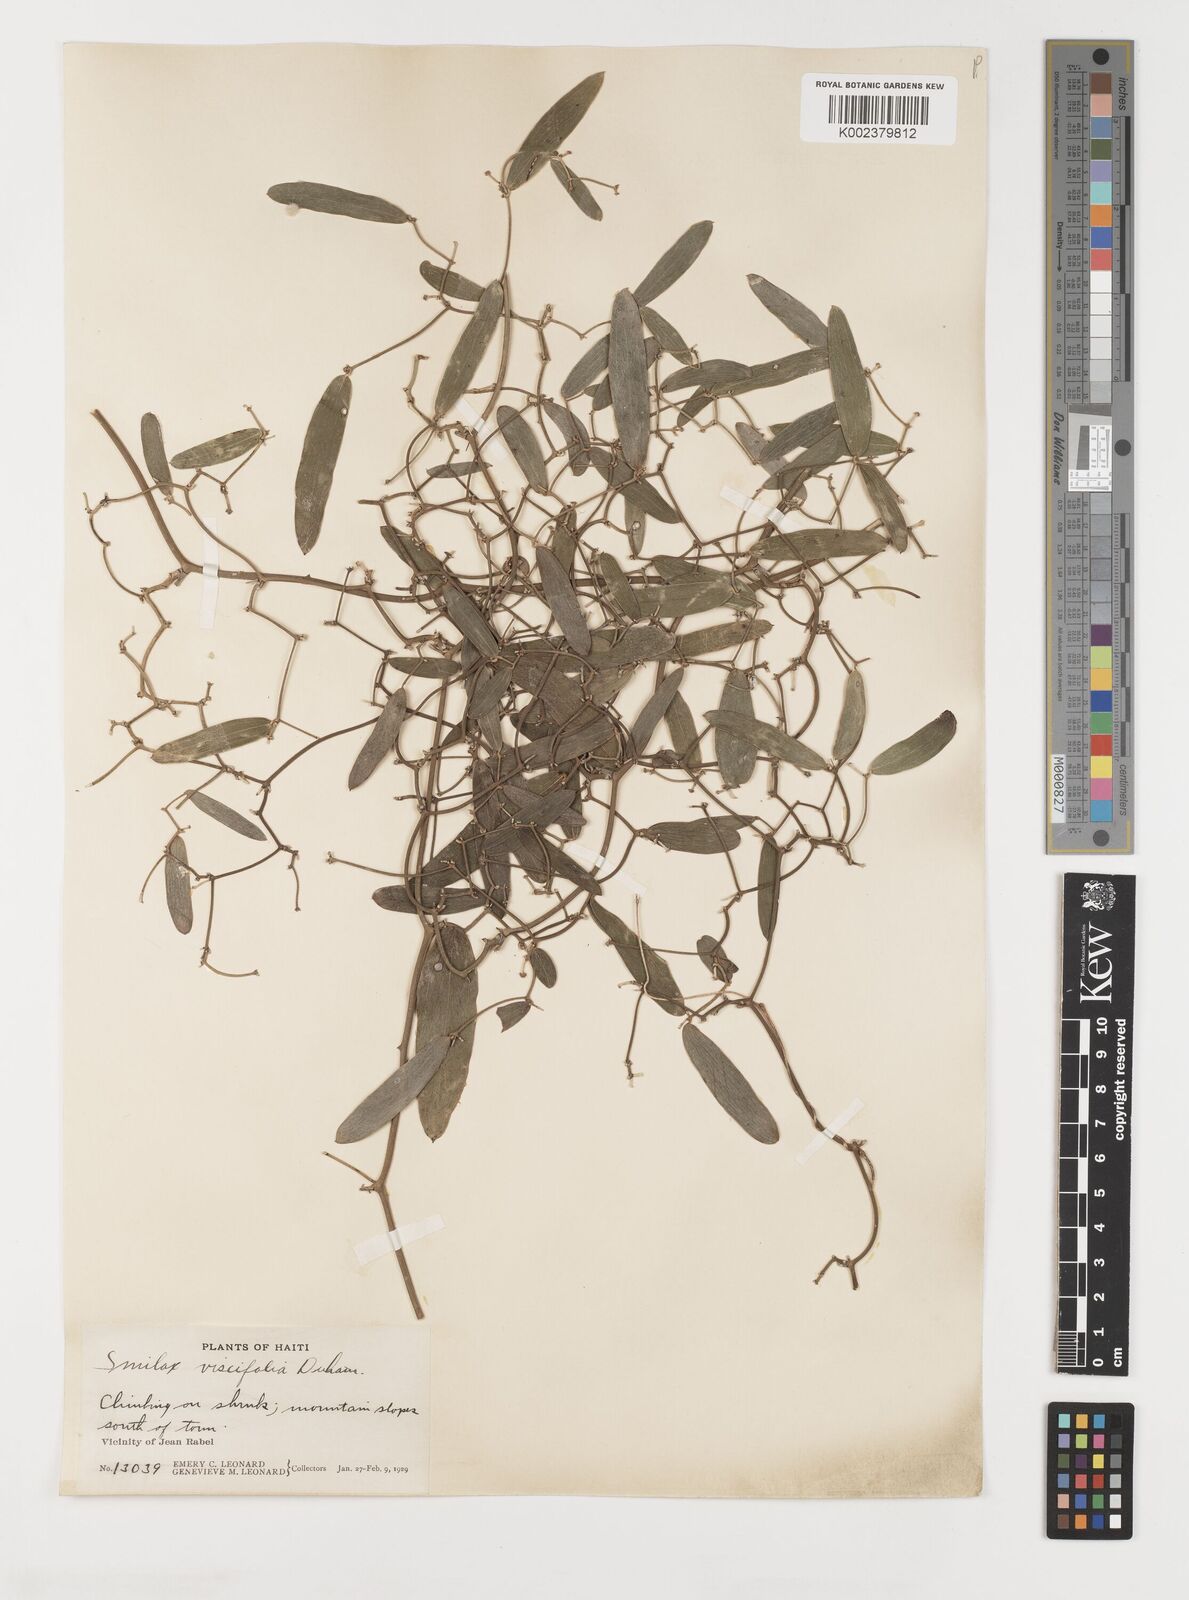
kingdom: Plantae
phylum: Tracheophyta
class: Liliopsida
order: Liliales
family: Smilacaceae
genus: Smilax
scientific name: Smilax oblongata
